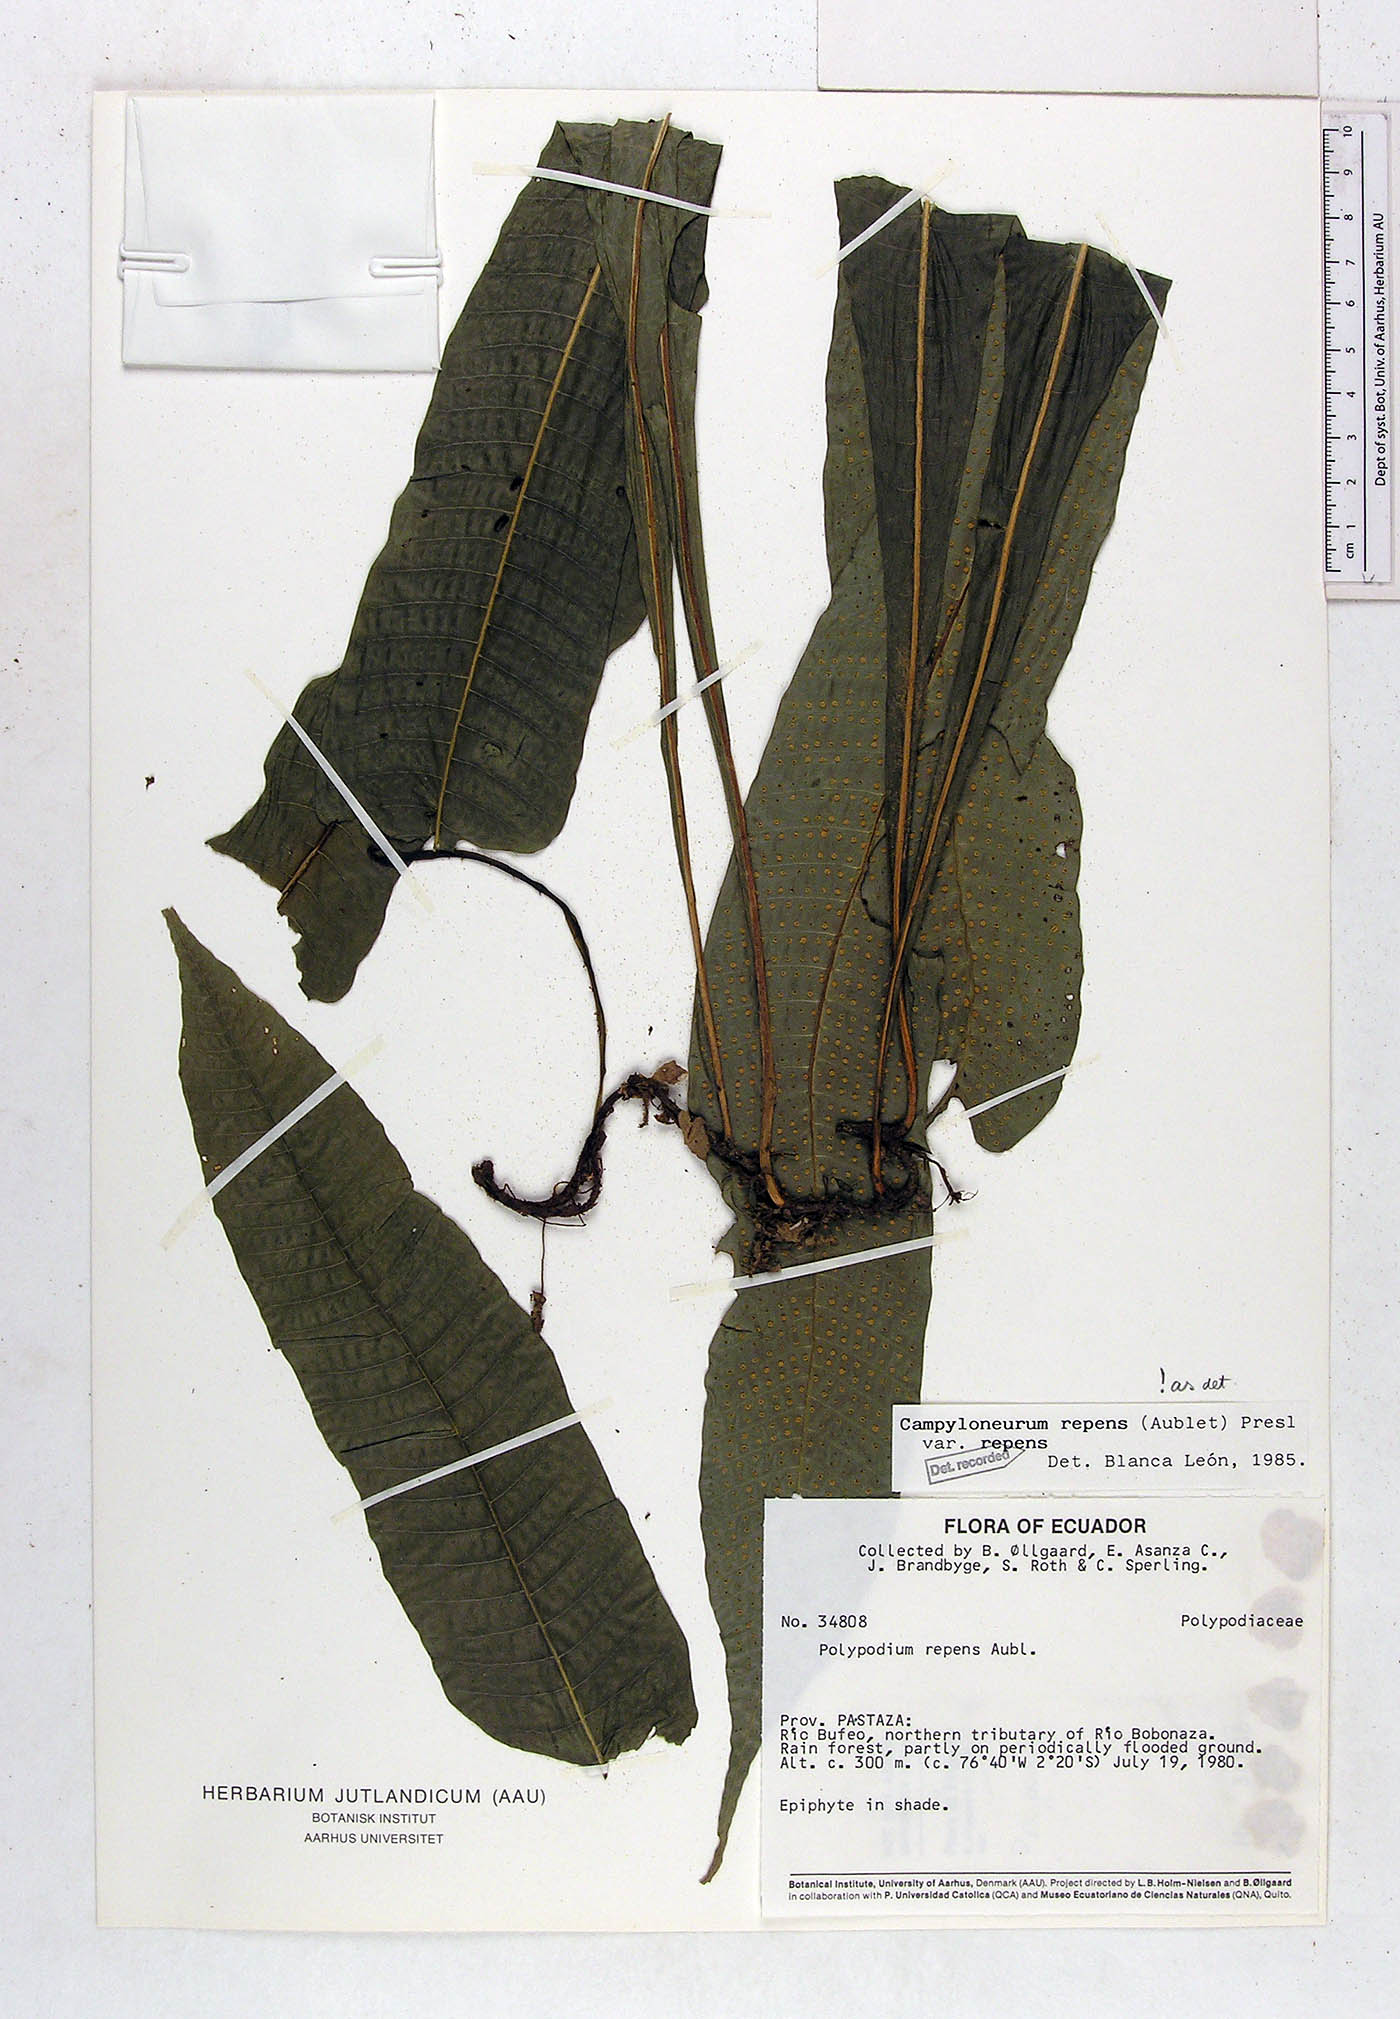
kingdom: Plantae
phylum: Tracheophyta
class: Polypodiopsida
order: Polypodiales
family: Polypodiaceae
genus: Campyloneurum
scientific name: Campyloneurum repens
